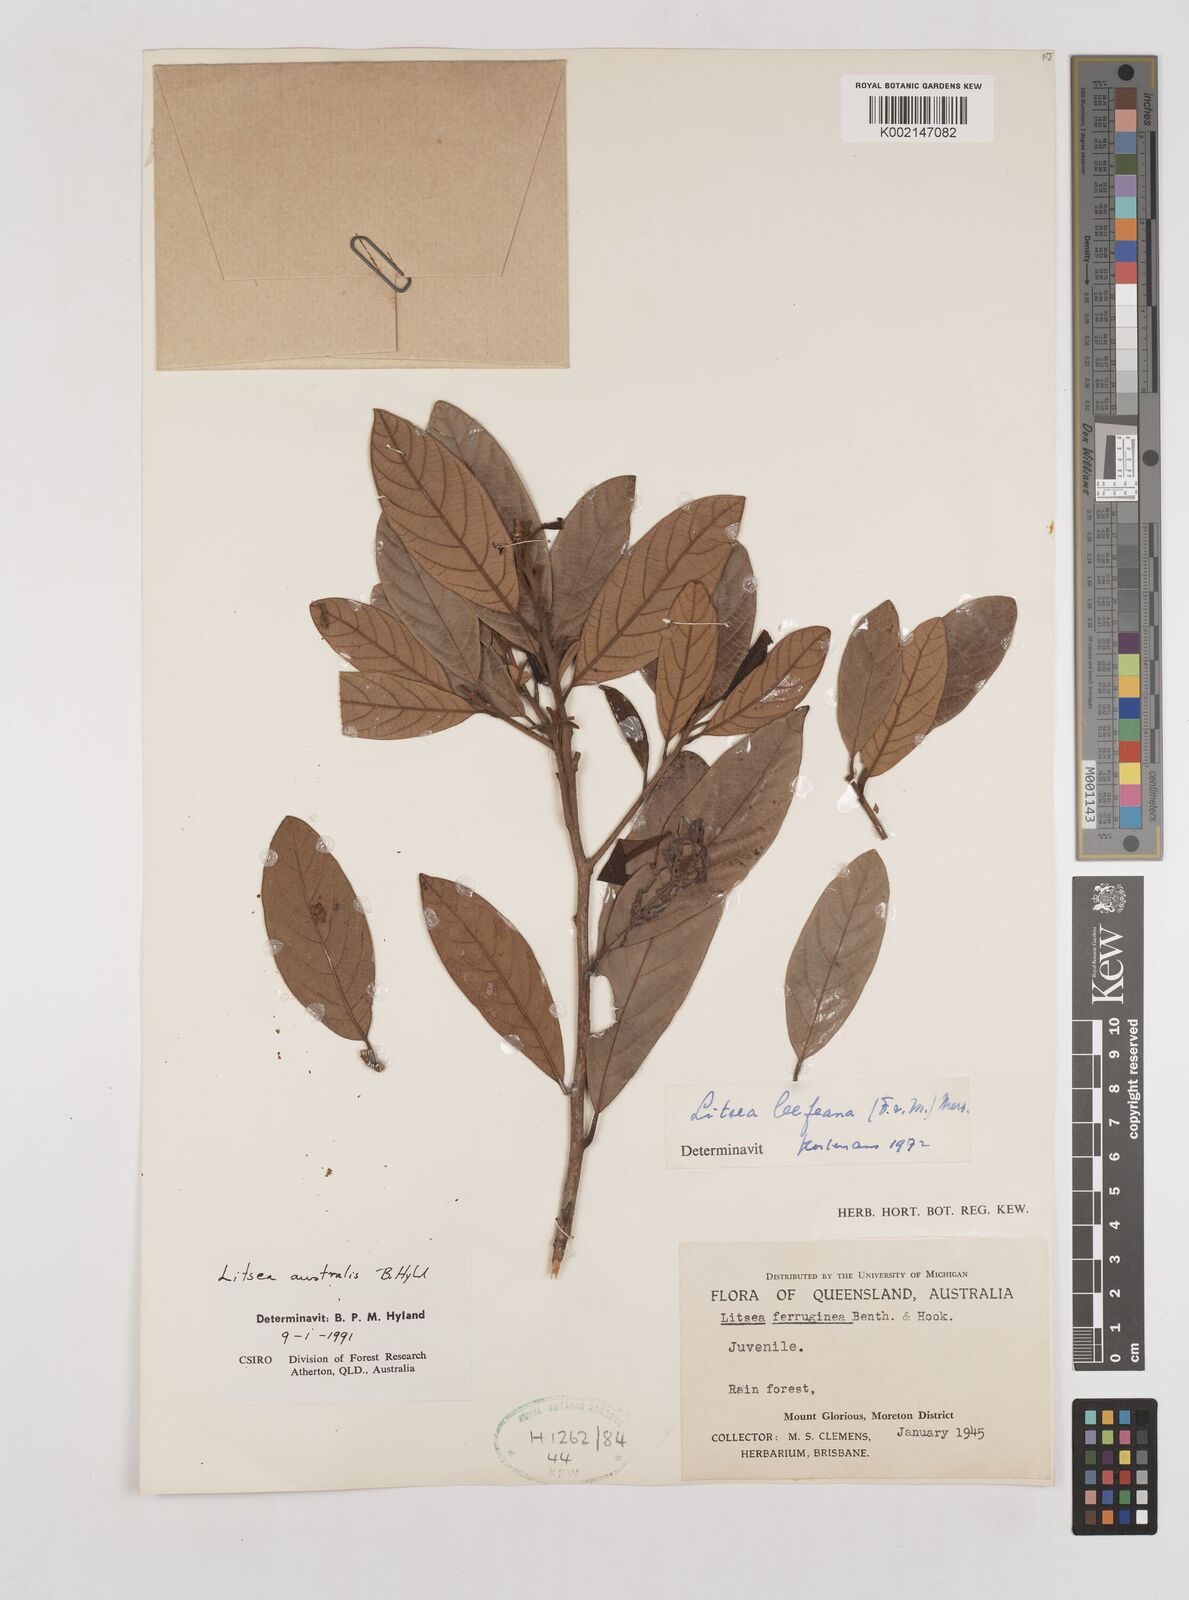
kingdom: Plantae
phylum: Tracheophyta
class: Magnoliopsida
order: Laurales
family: Lauraceae
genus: Litsea
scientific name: Litsea australis
